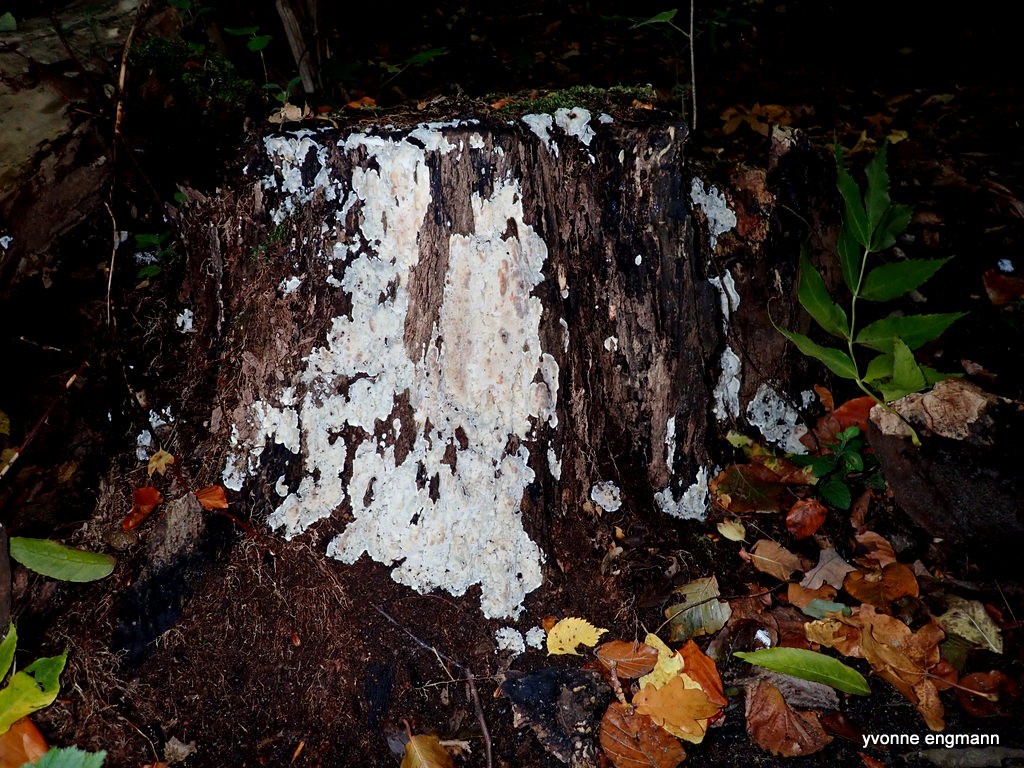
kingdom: Fungi
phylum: Basidiomycota
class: Agaricomycetes
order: Polyporales
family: Meruliaceae
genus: Physisporinus
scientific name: Physisporinus vitreus
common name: mastesvamp
